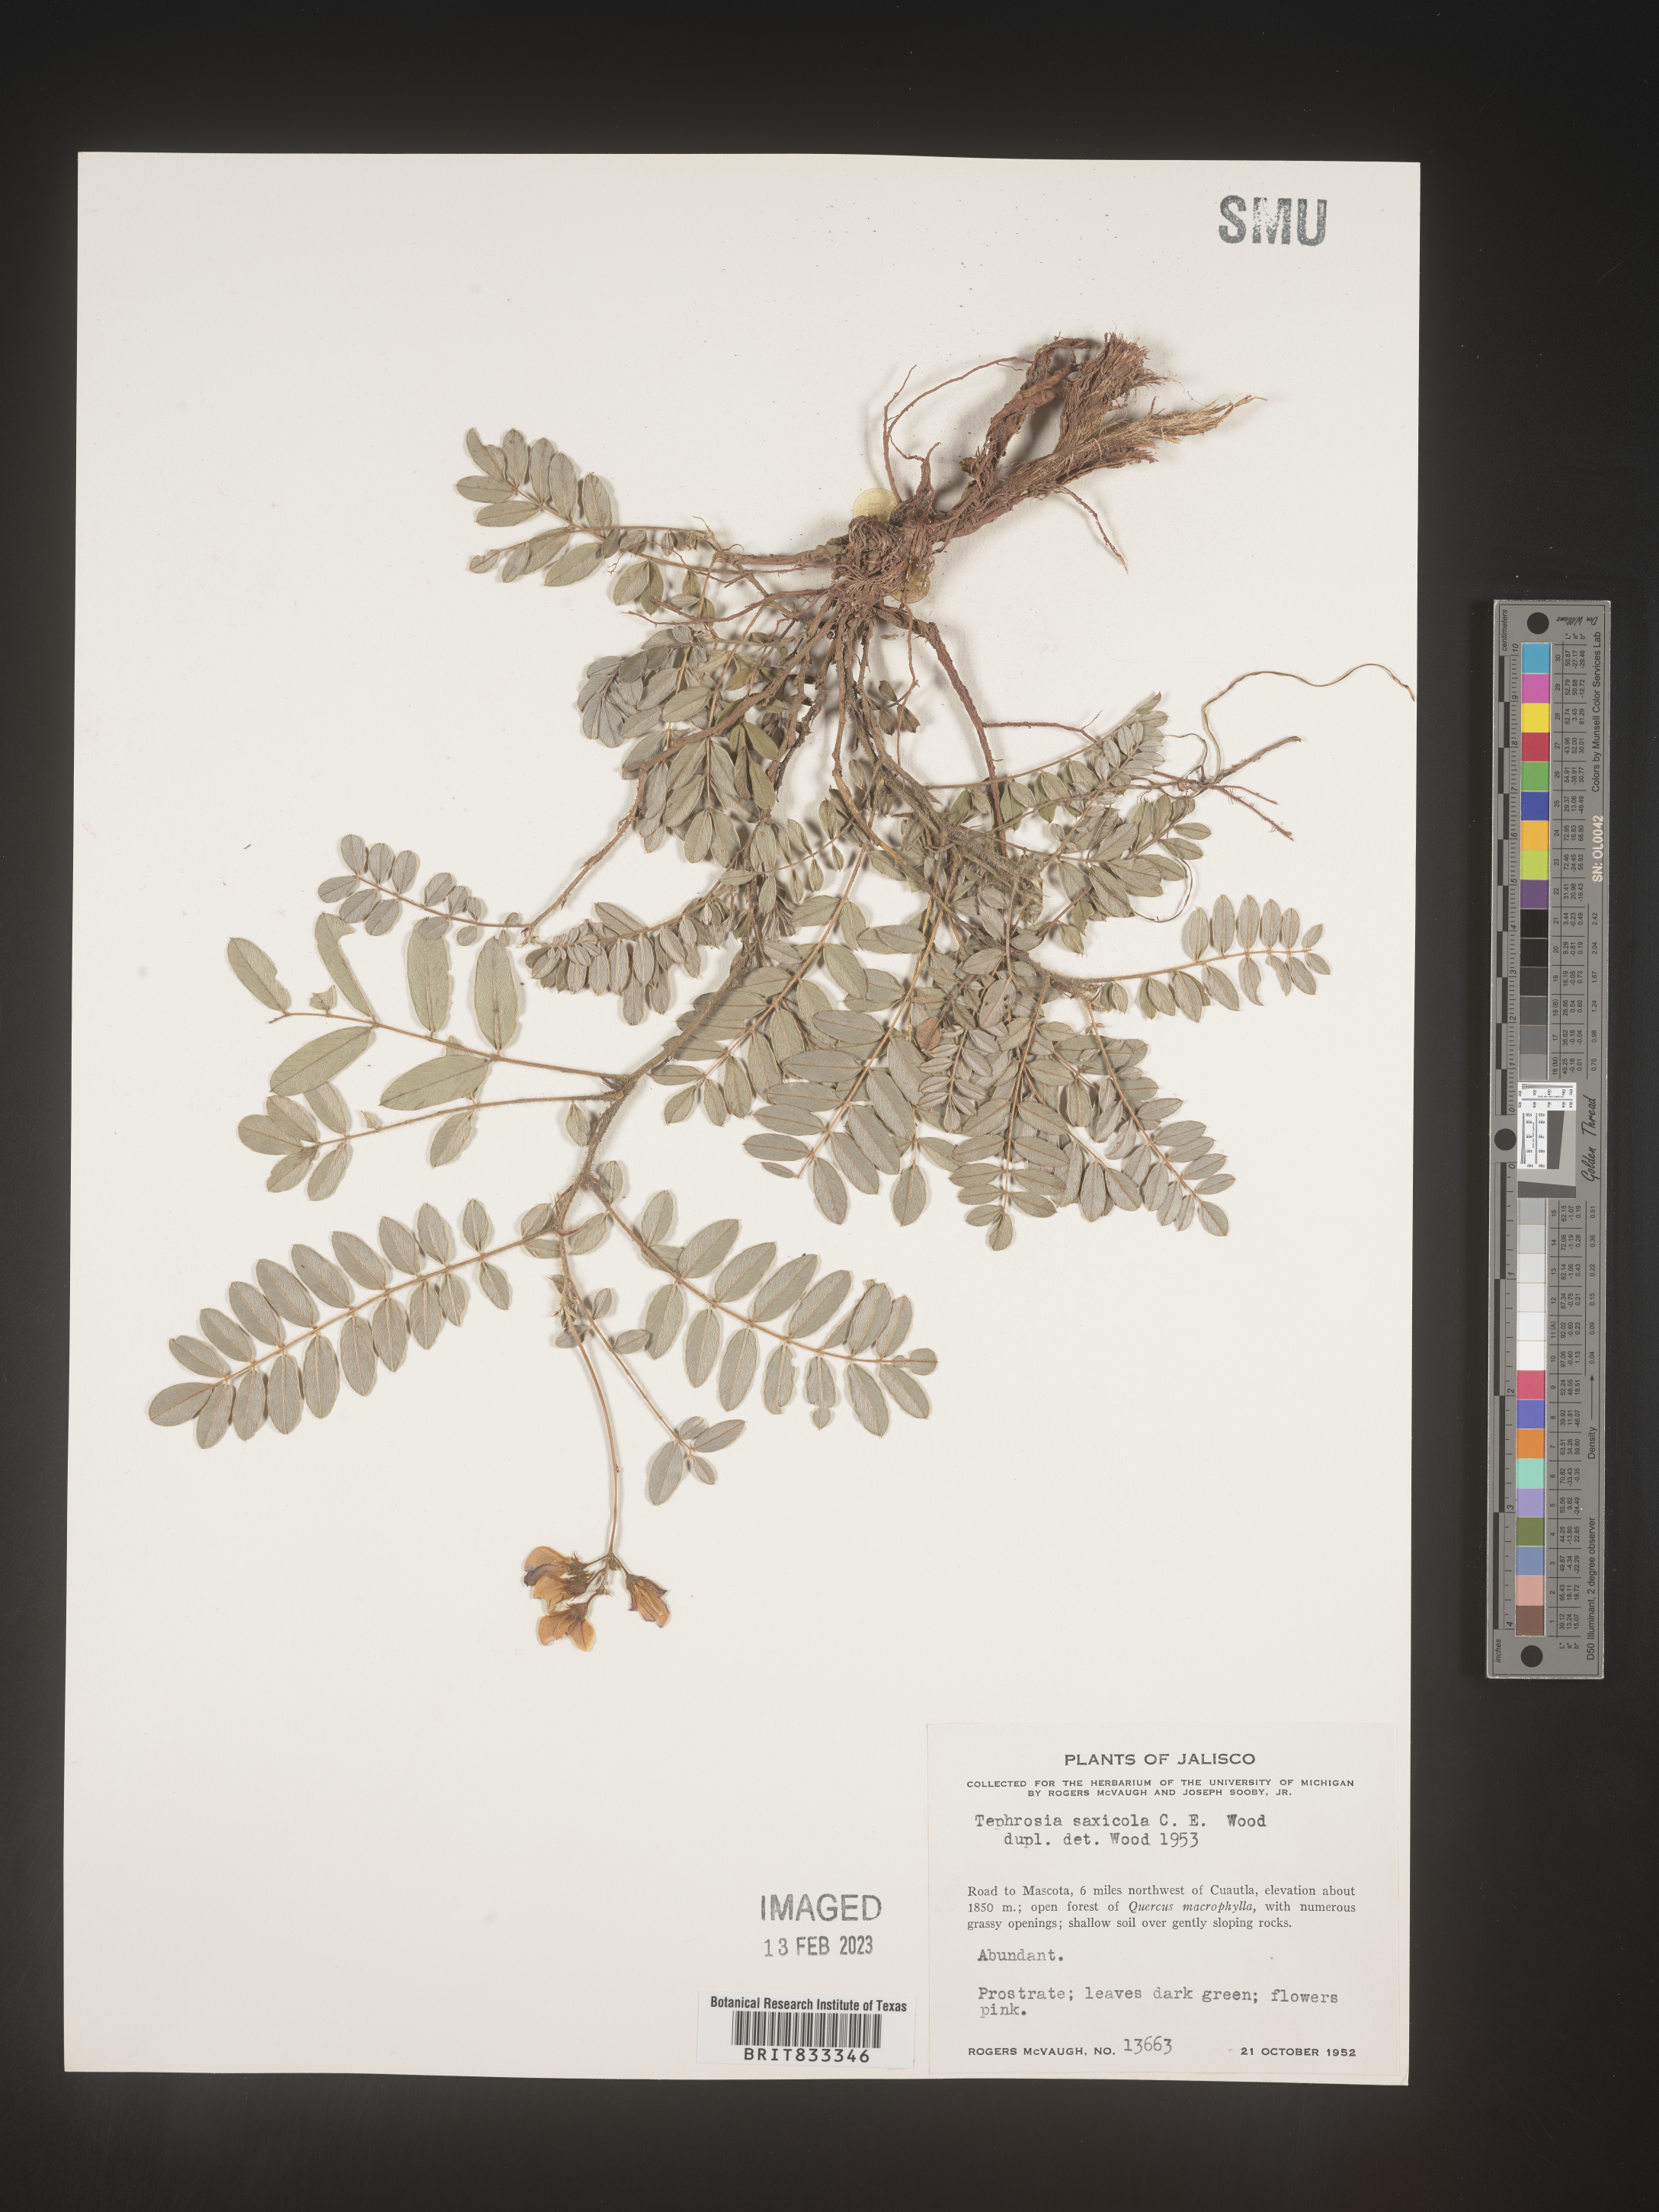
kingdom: Plantae
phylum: Tracheophyta
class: Magnoliopsida
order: Fabales
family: Fabaceae
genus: Tephrosia
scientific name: Tephrosia
